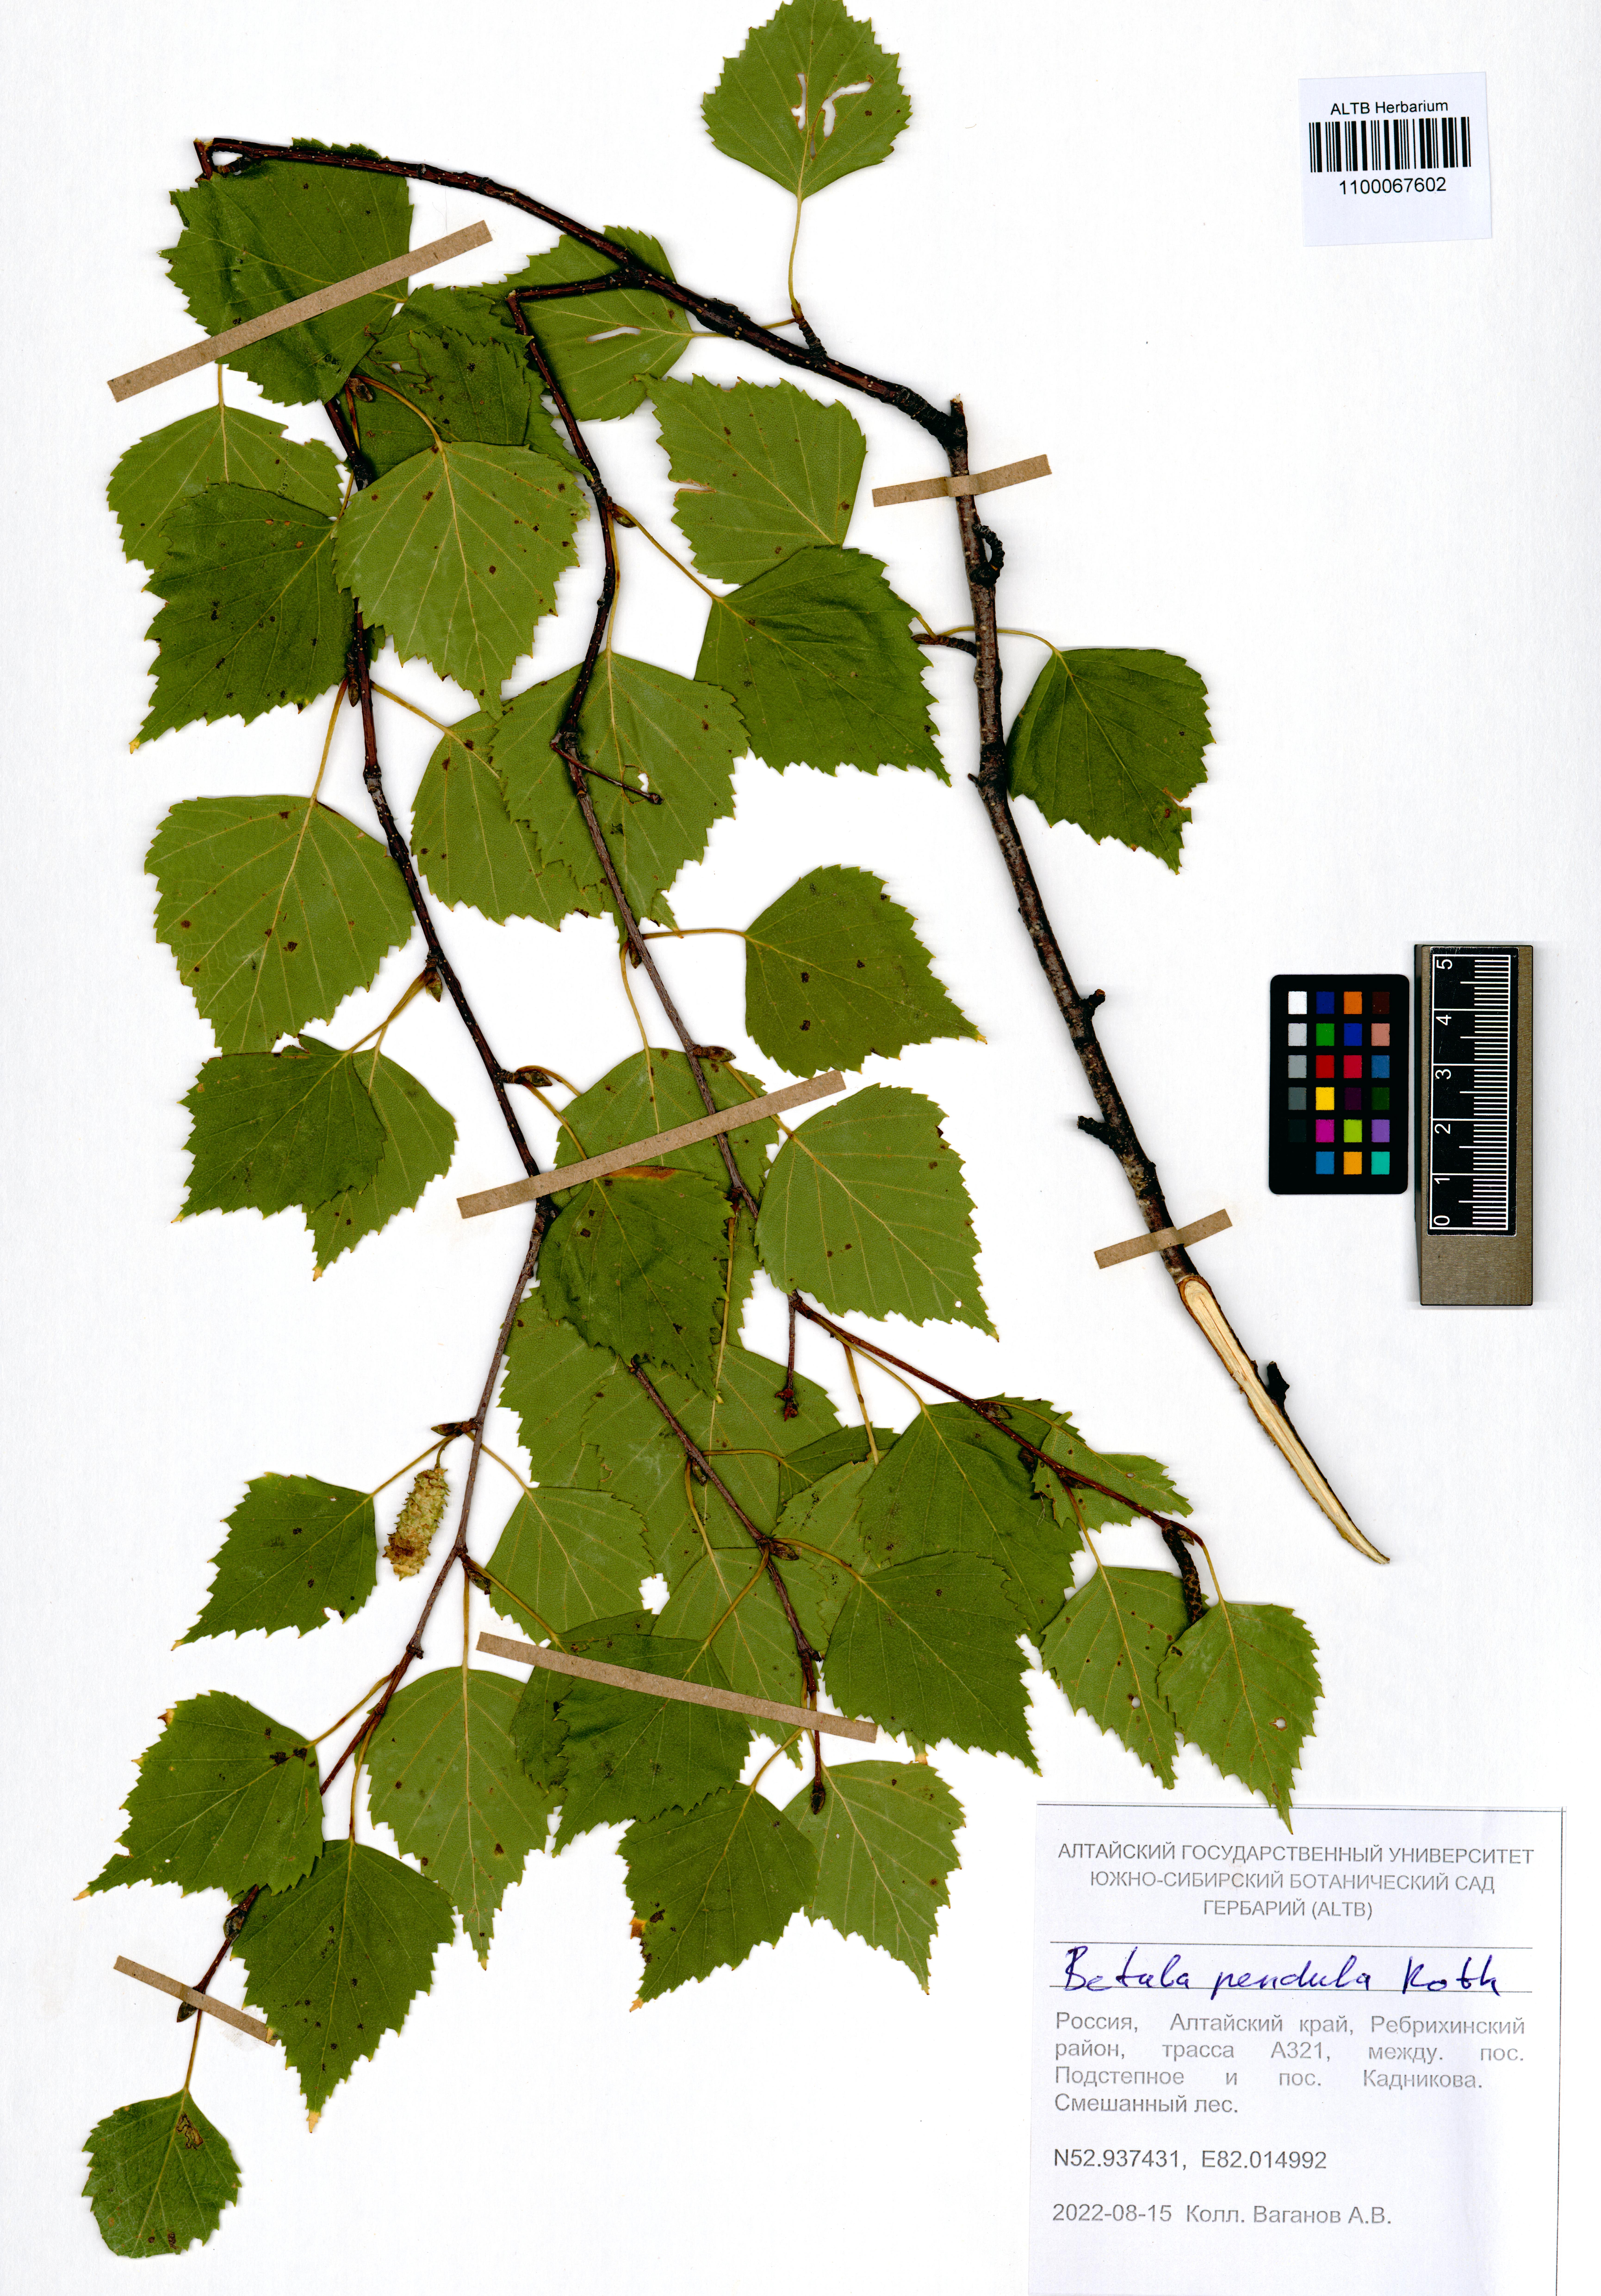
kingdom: Plantae
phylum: Tracheophyta
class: Magnoliopsida
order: Fagales
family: Betulaceae
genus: Betula
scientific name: Betula pendula
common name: Silver birch
